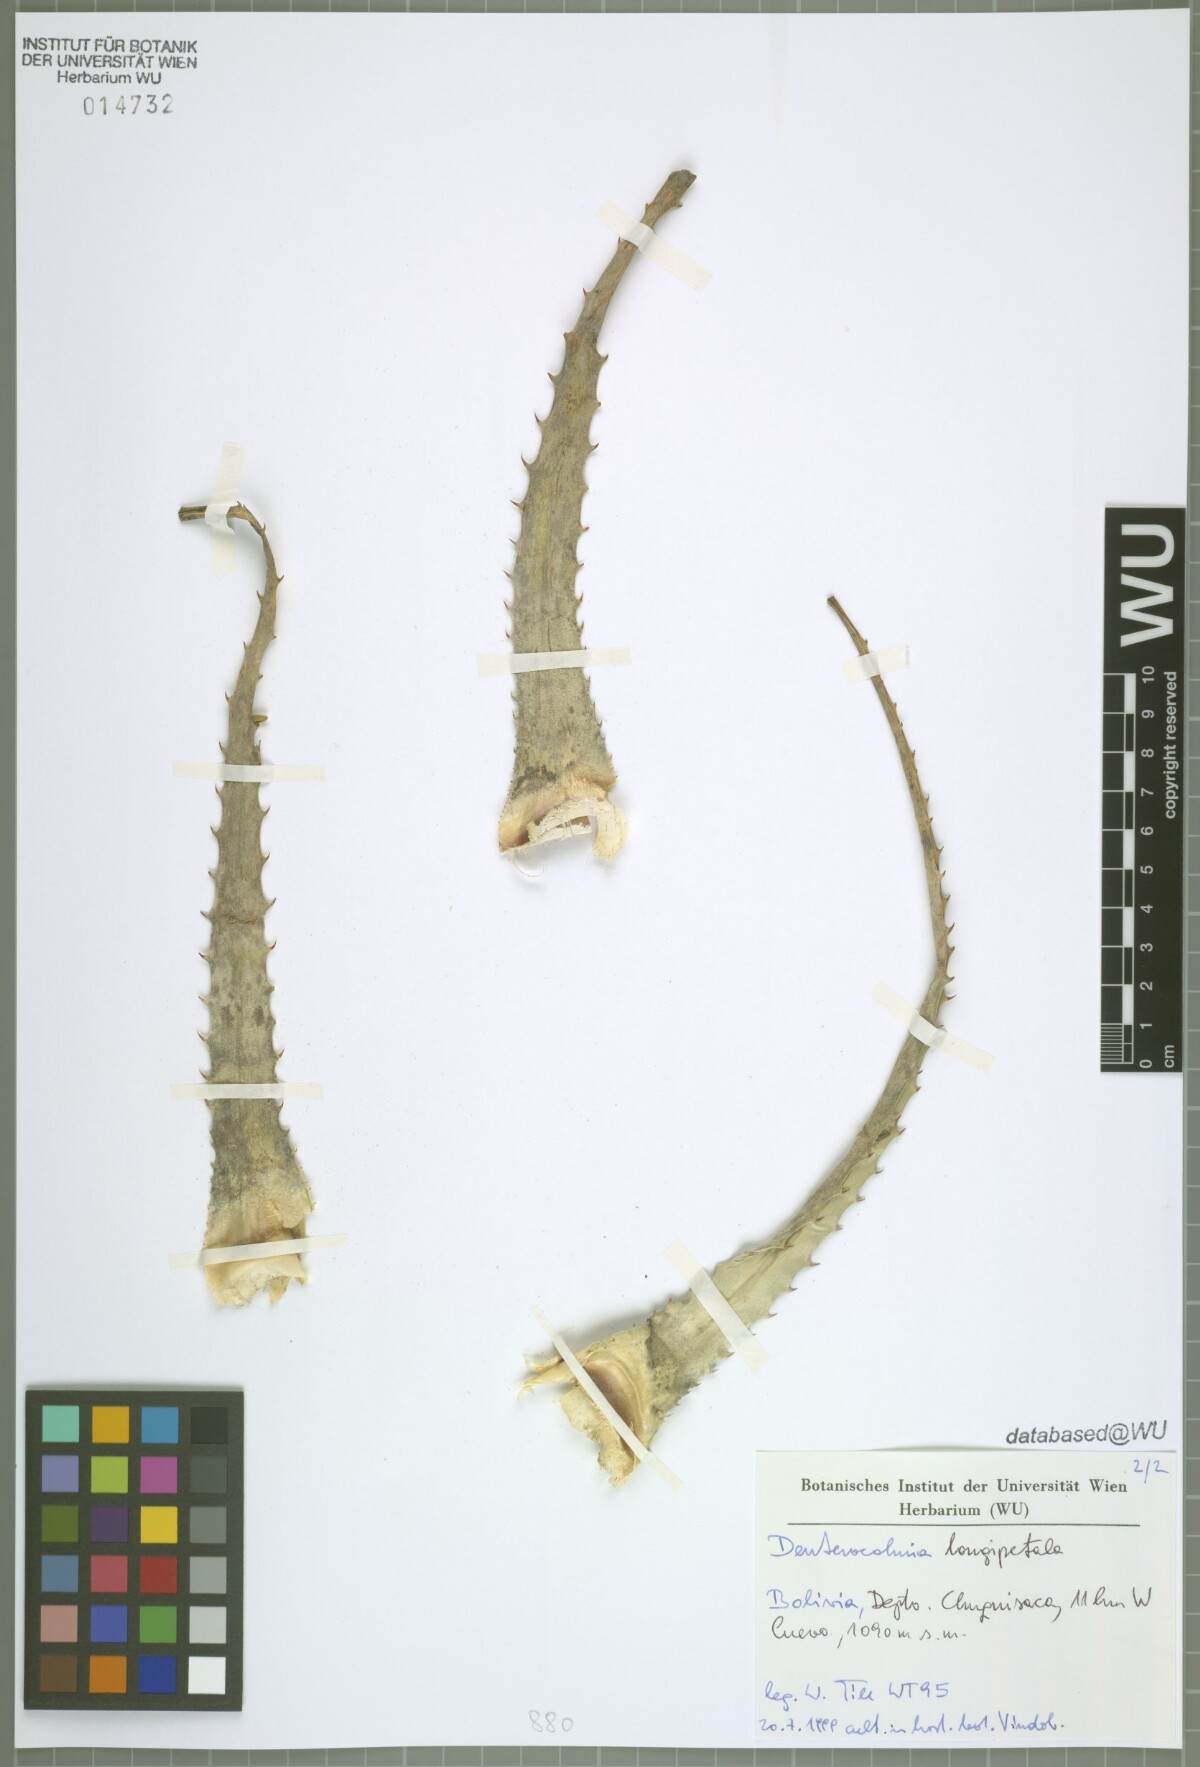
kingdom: Plantae
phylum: Tracheophyta
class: Liliopsida
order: Poales
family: Bromeliaceae
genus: Deuterocohnia
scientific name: Deuterocohnia longipetala
